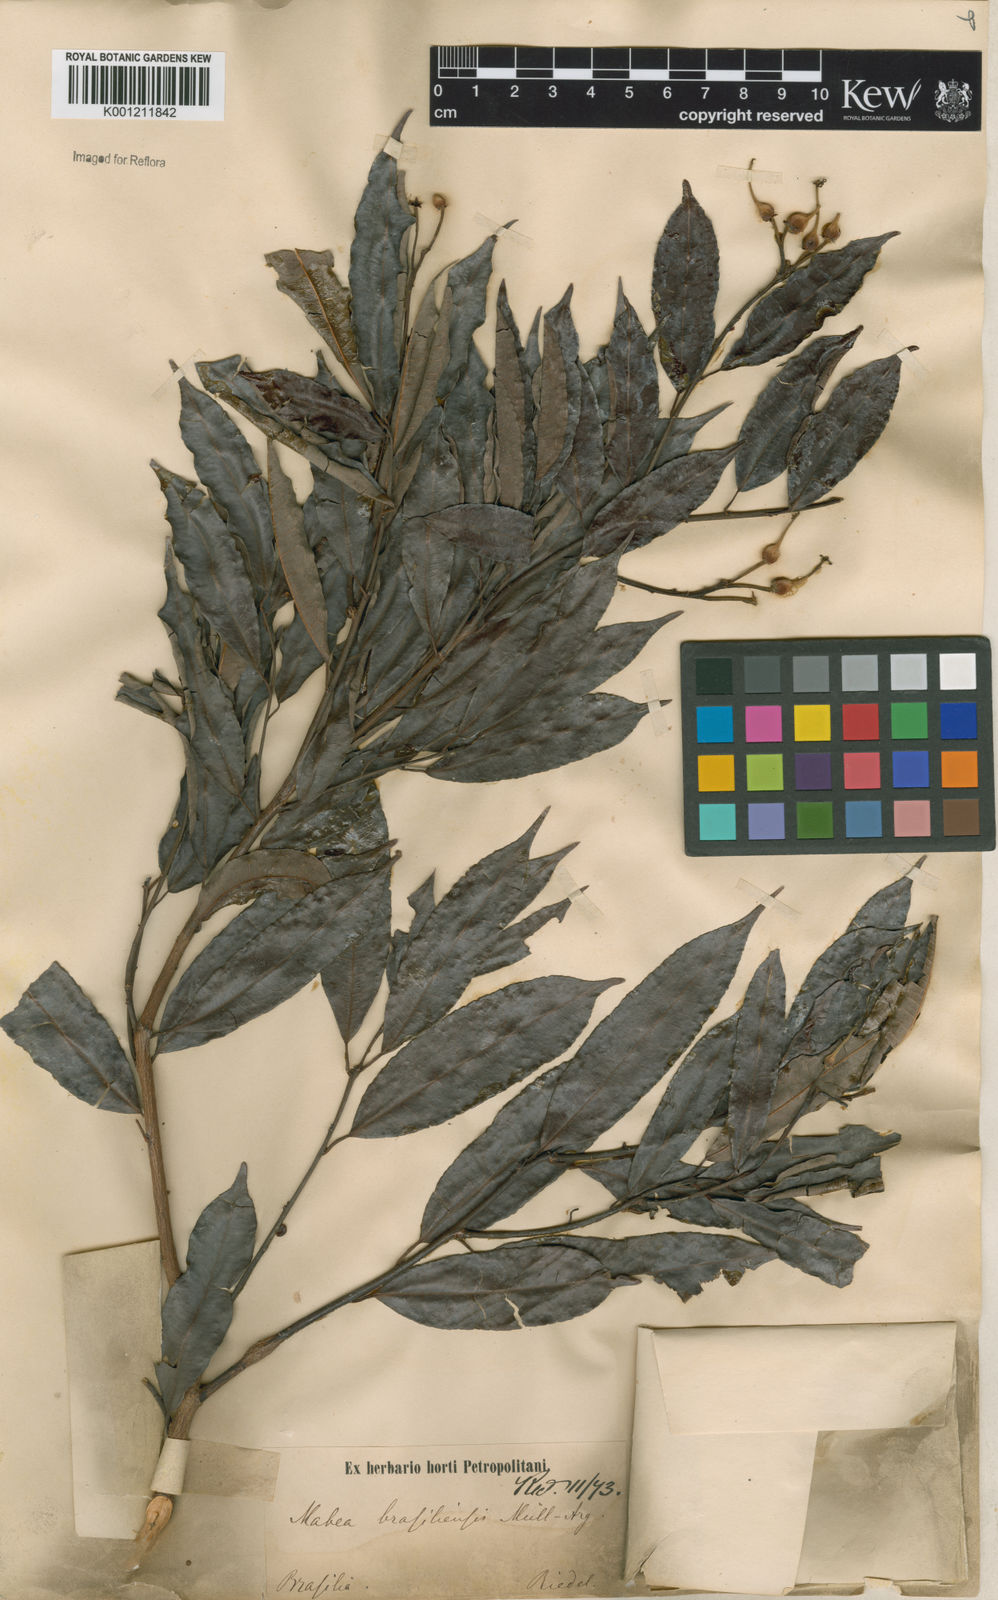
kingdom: Plantae
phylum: Tracheophyta
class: Magnoliopsida
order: Malpighiales
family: Euphorbiaceae
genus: Mabea
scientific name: Mabea
